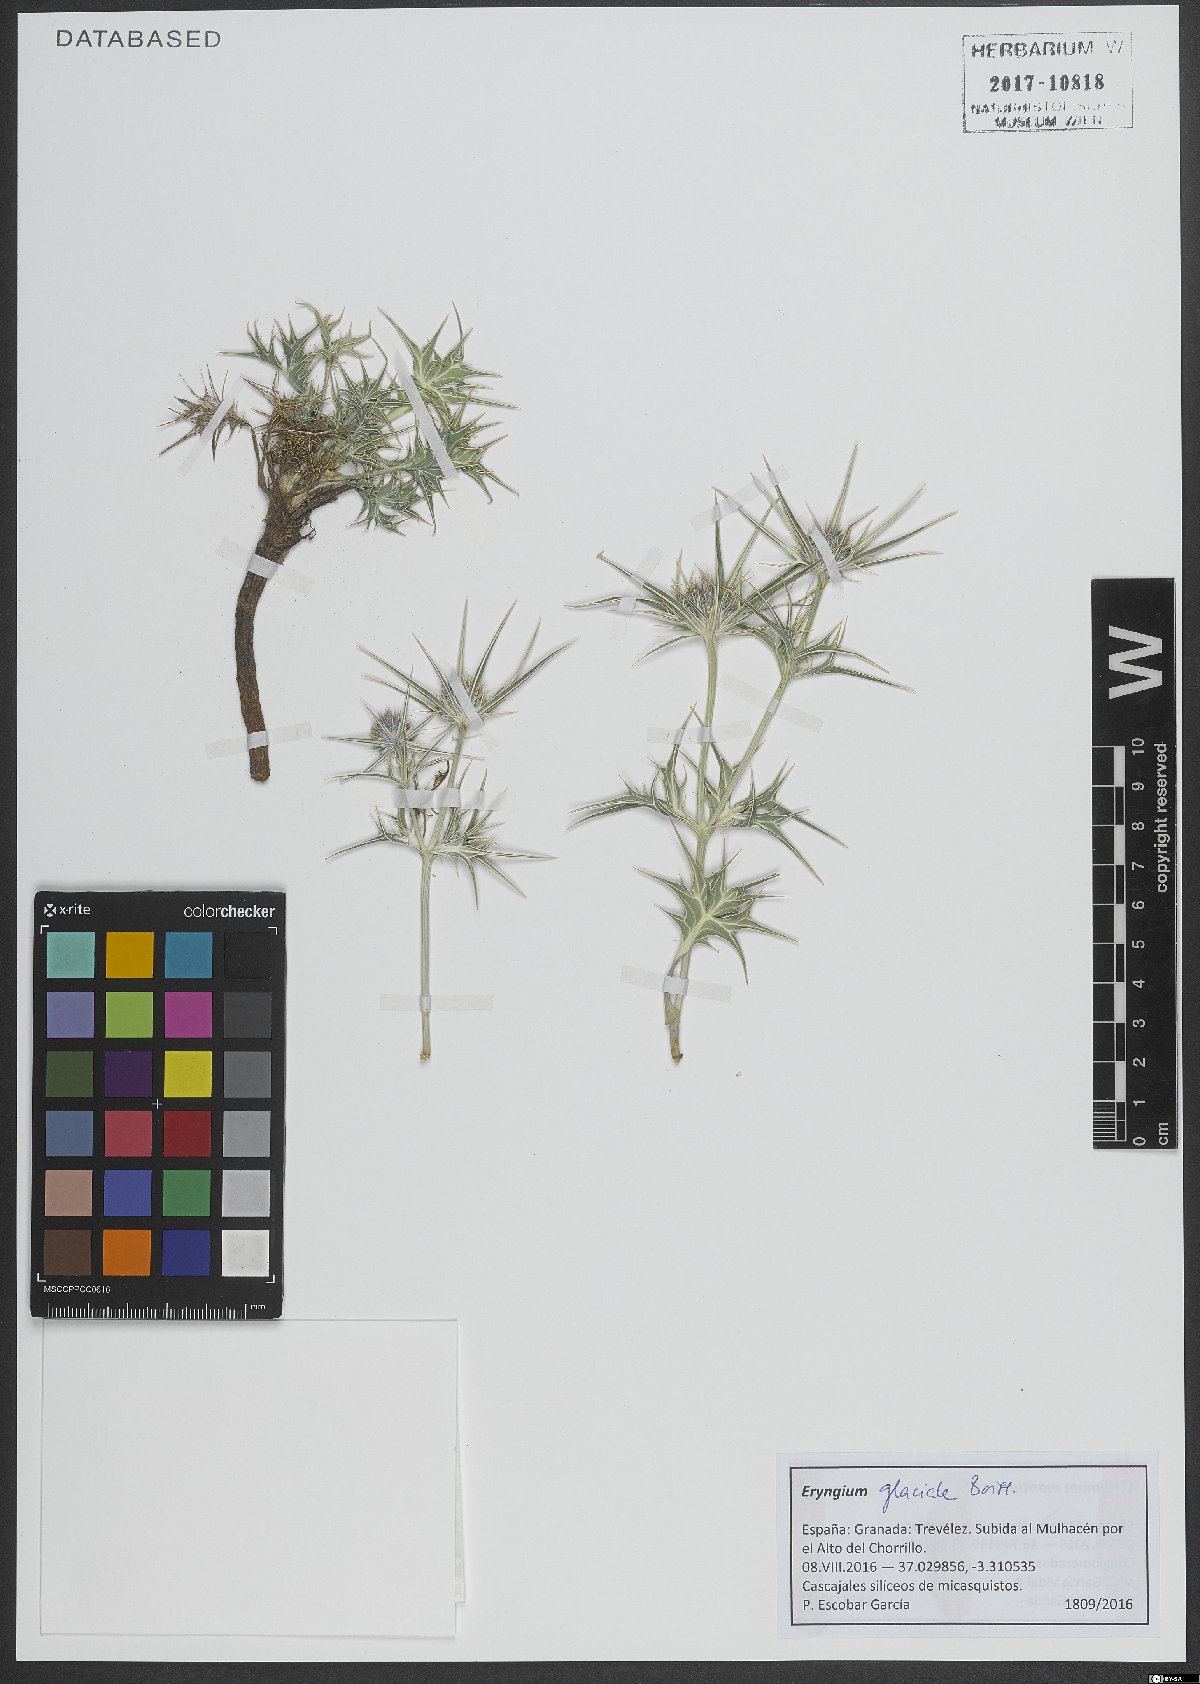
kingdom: Plantae
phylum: Tracheophyta
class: Magnoliopsida
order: Apiales
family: Apiaceae
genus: Eryngium
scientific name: Eryngium glaciale
